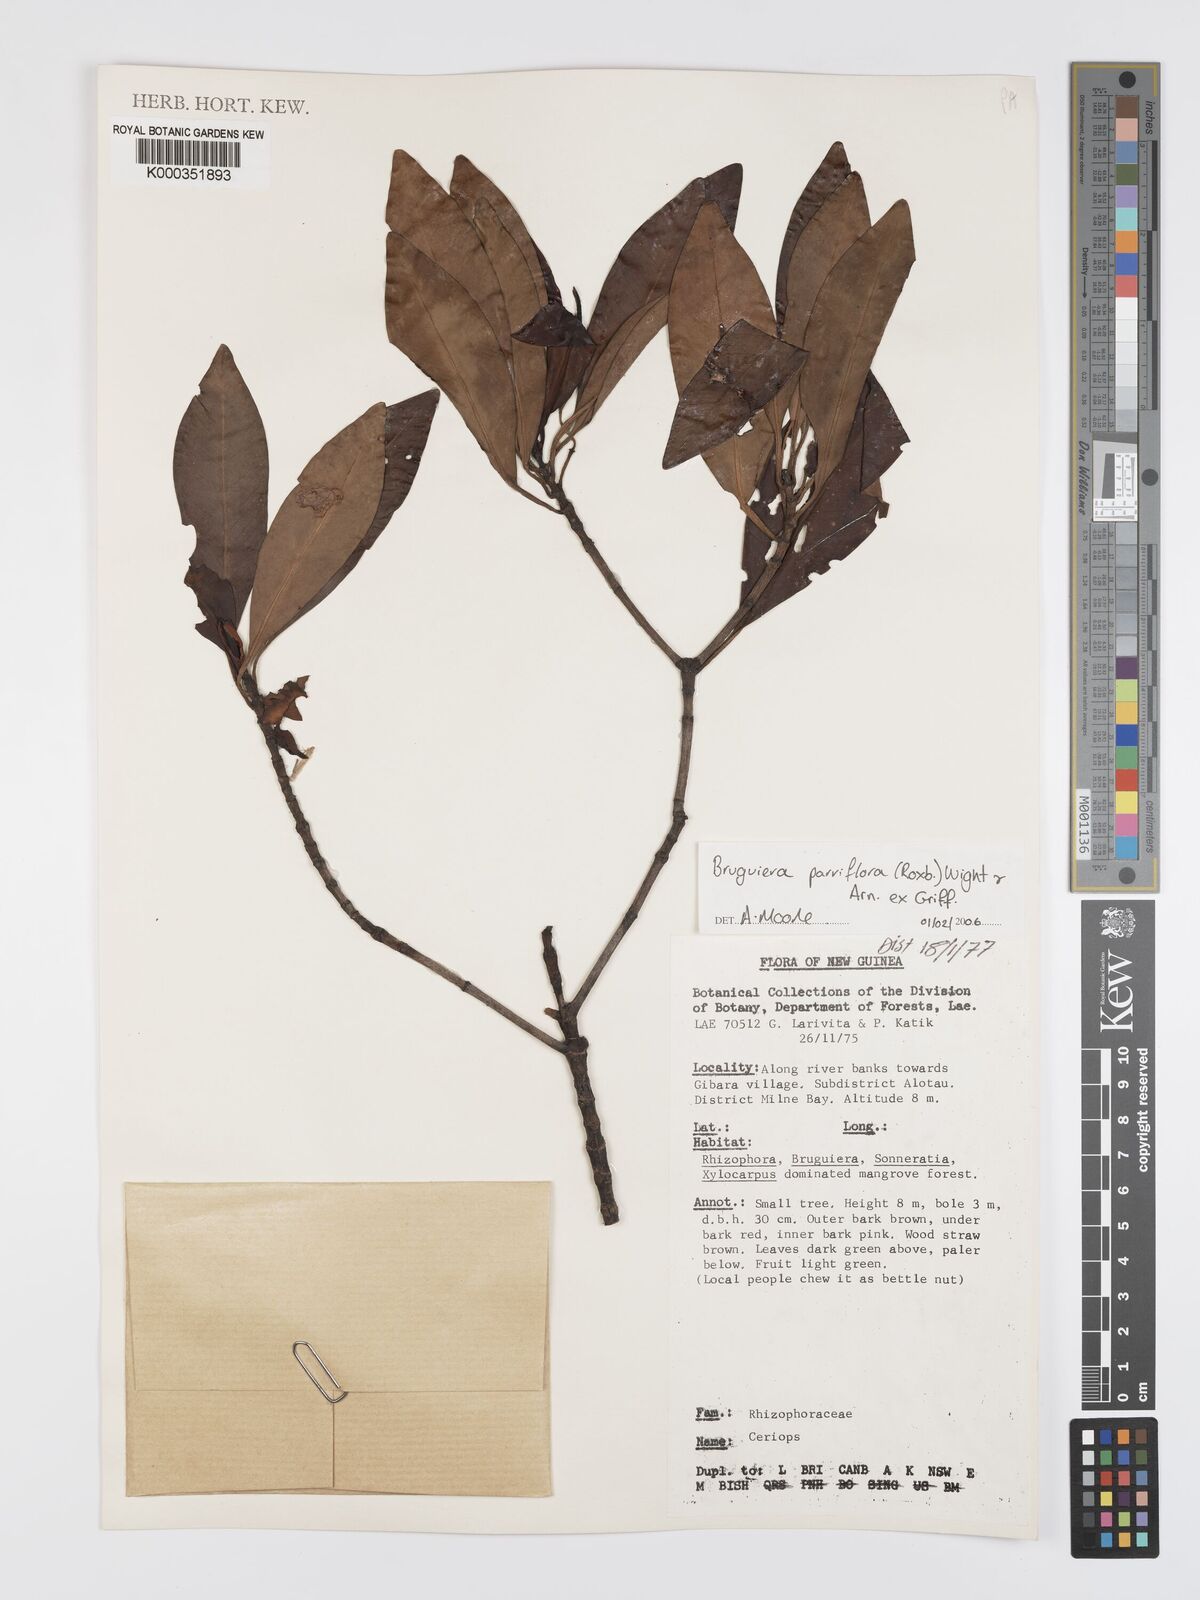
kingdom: Plantae
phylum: Tracheophyta
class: Magnoliopsida
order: Malpighiales
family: Rhizophoraceae
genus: Bruguiera
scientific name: Bruguiera parviflora
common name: Smallflower bruguiera
